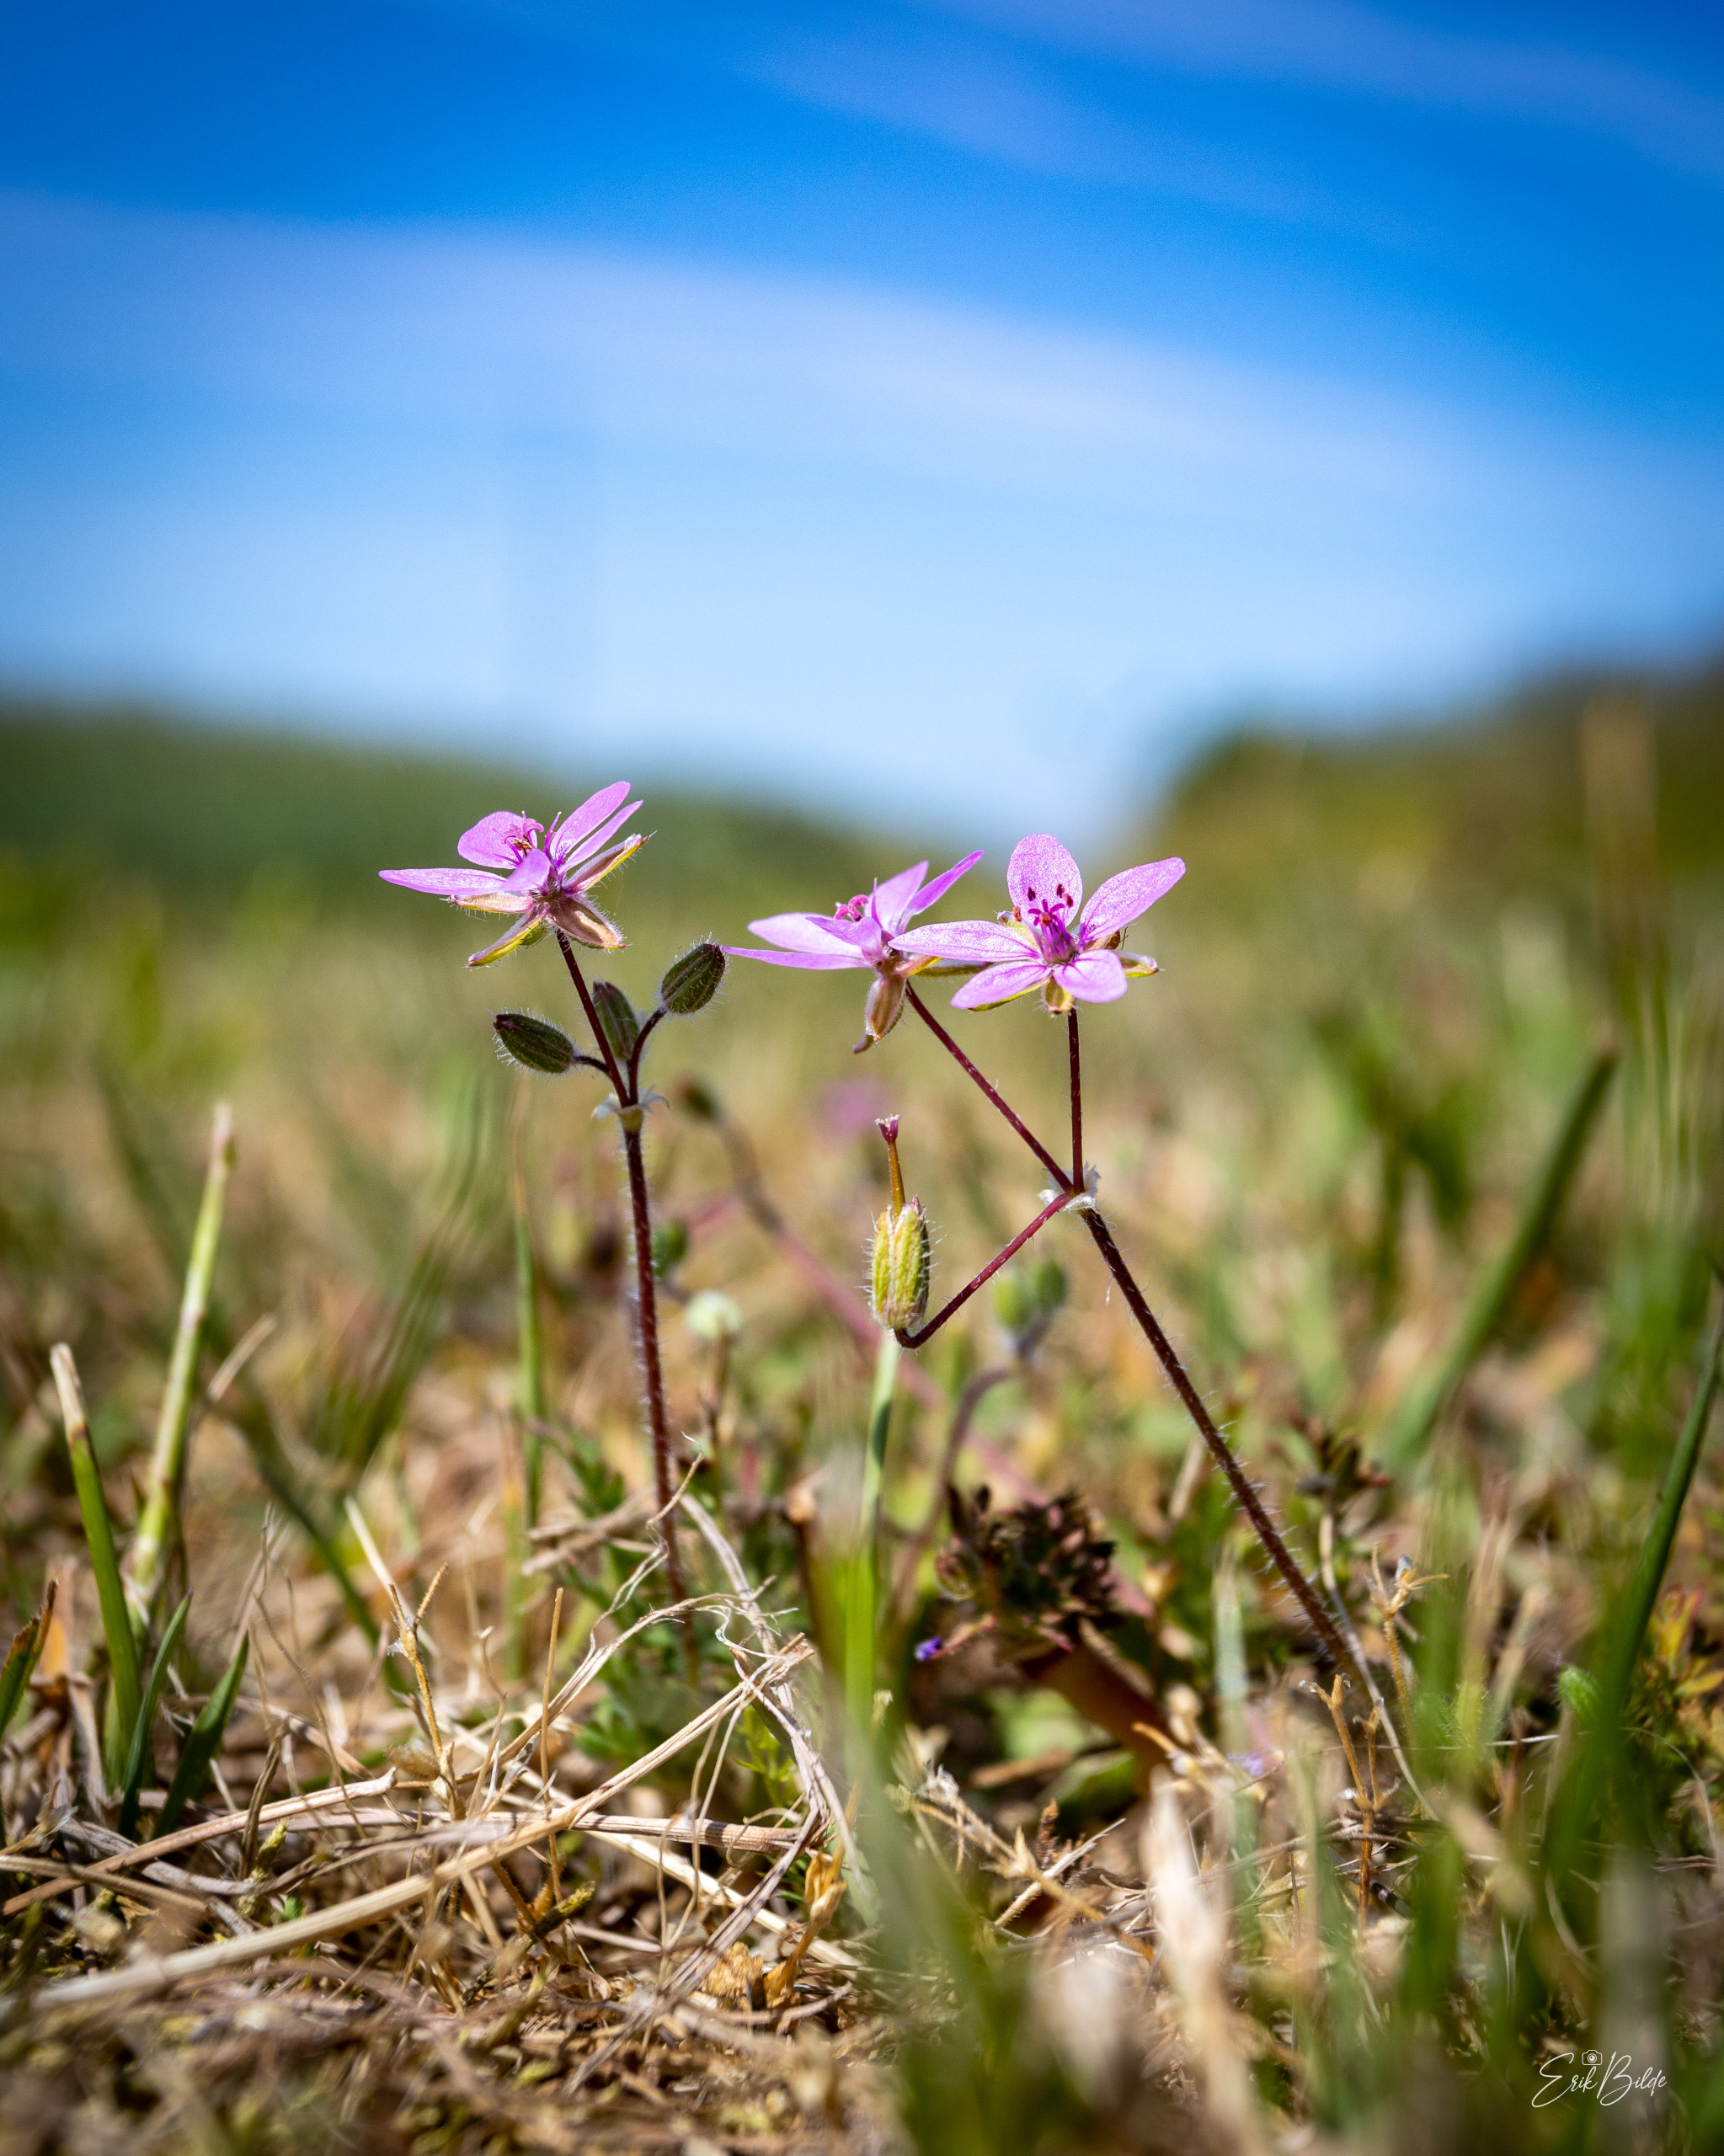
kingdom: Plantae
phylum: Tracheophyta
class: Magnoliopsida
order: Geraniales
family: Geraniaceae
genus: Erodium
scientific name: Erodium cicutarium
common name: Hejrenæb
